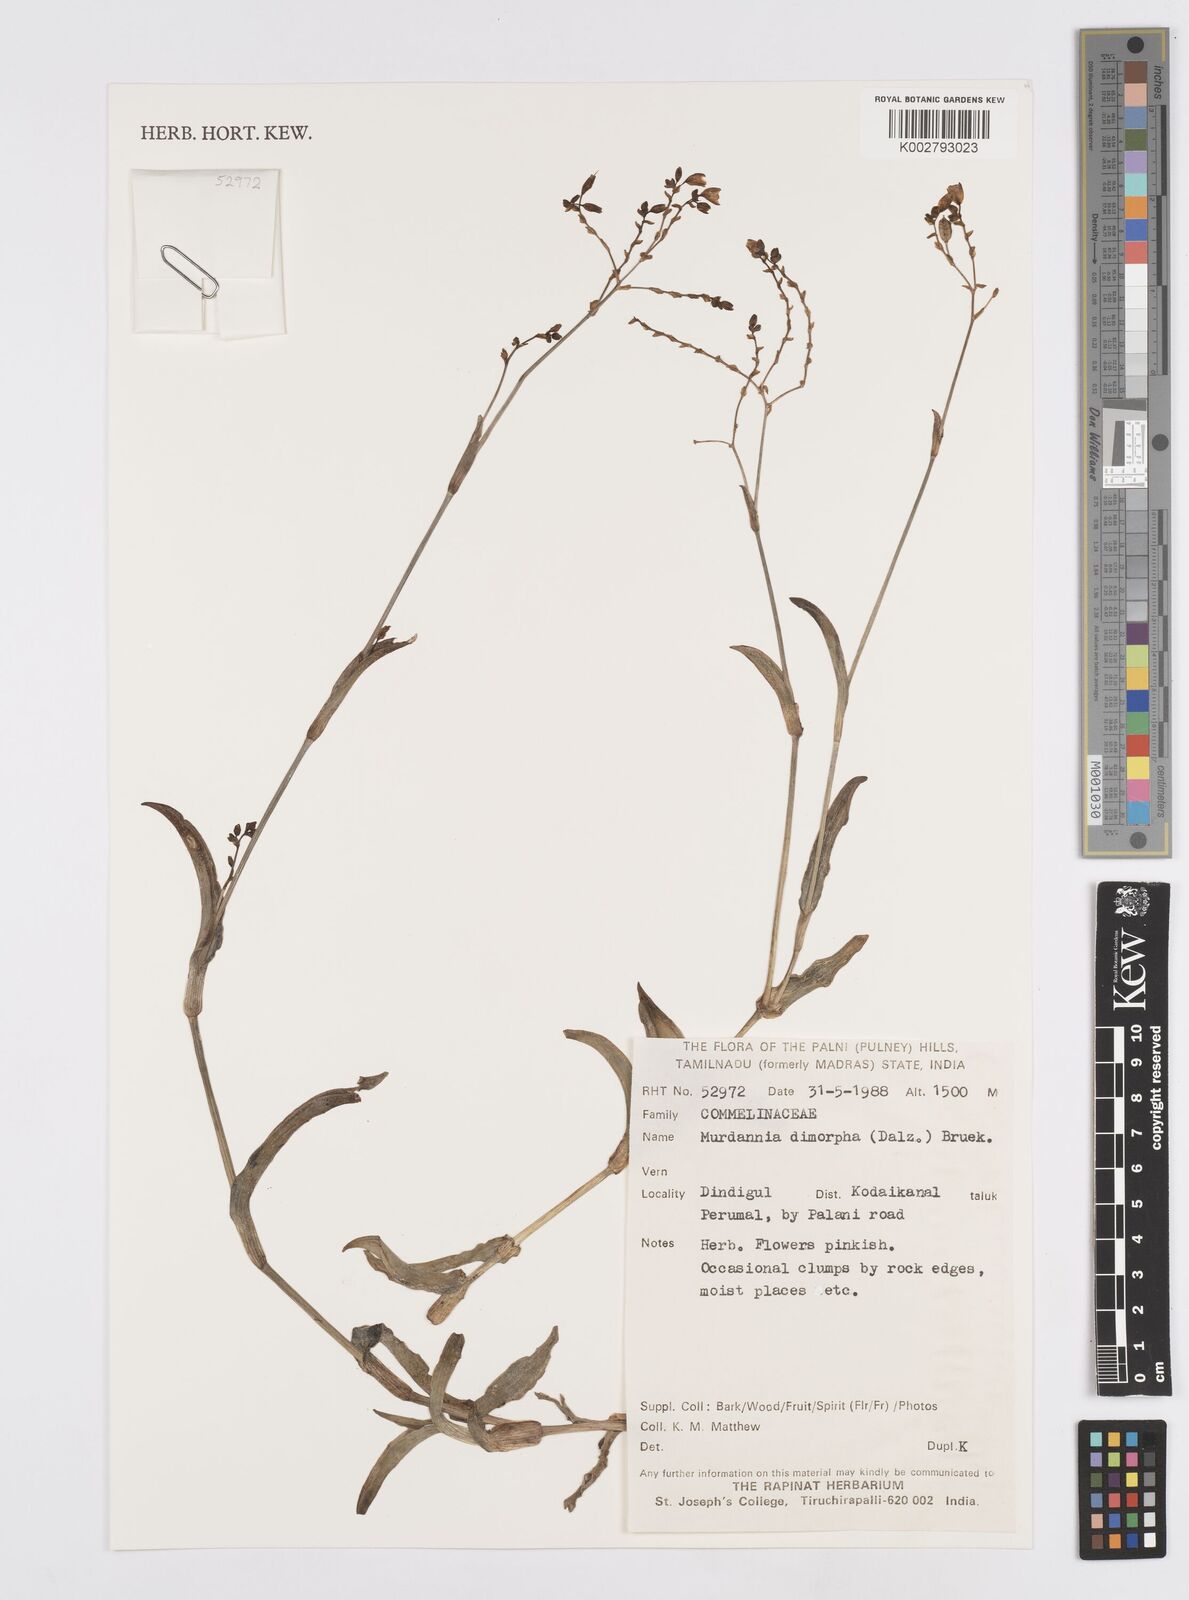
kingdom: Plantae
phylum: Tracheophyta
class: Liliopsida
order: Commelinales
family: Commelinaceae
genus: Murdannia
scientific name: Murdannia dimorpha
